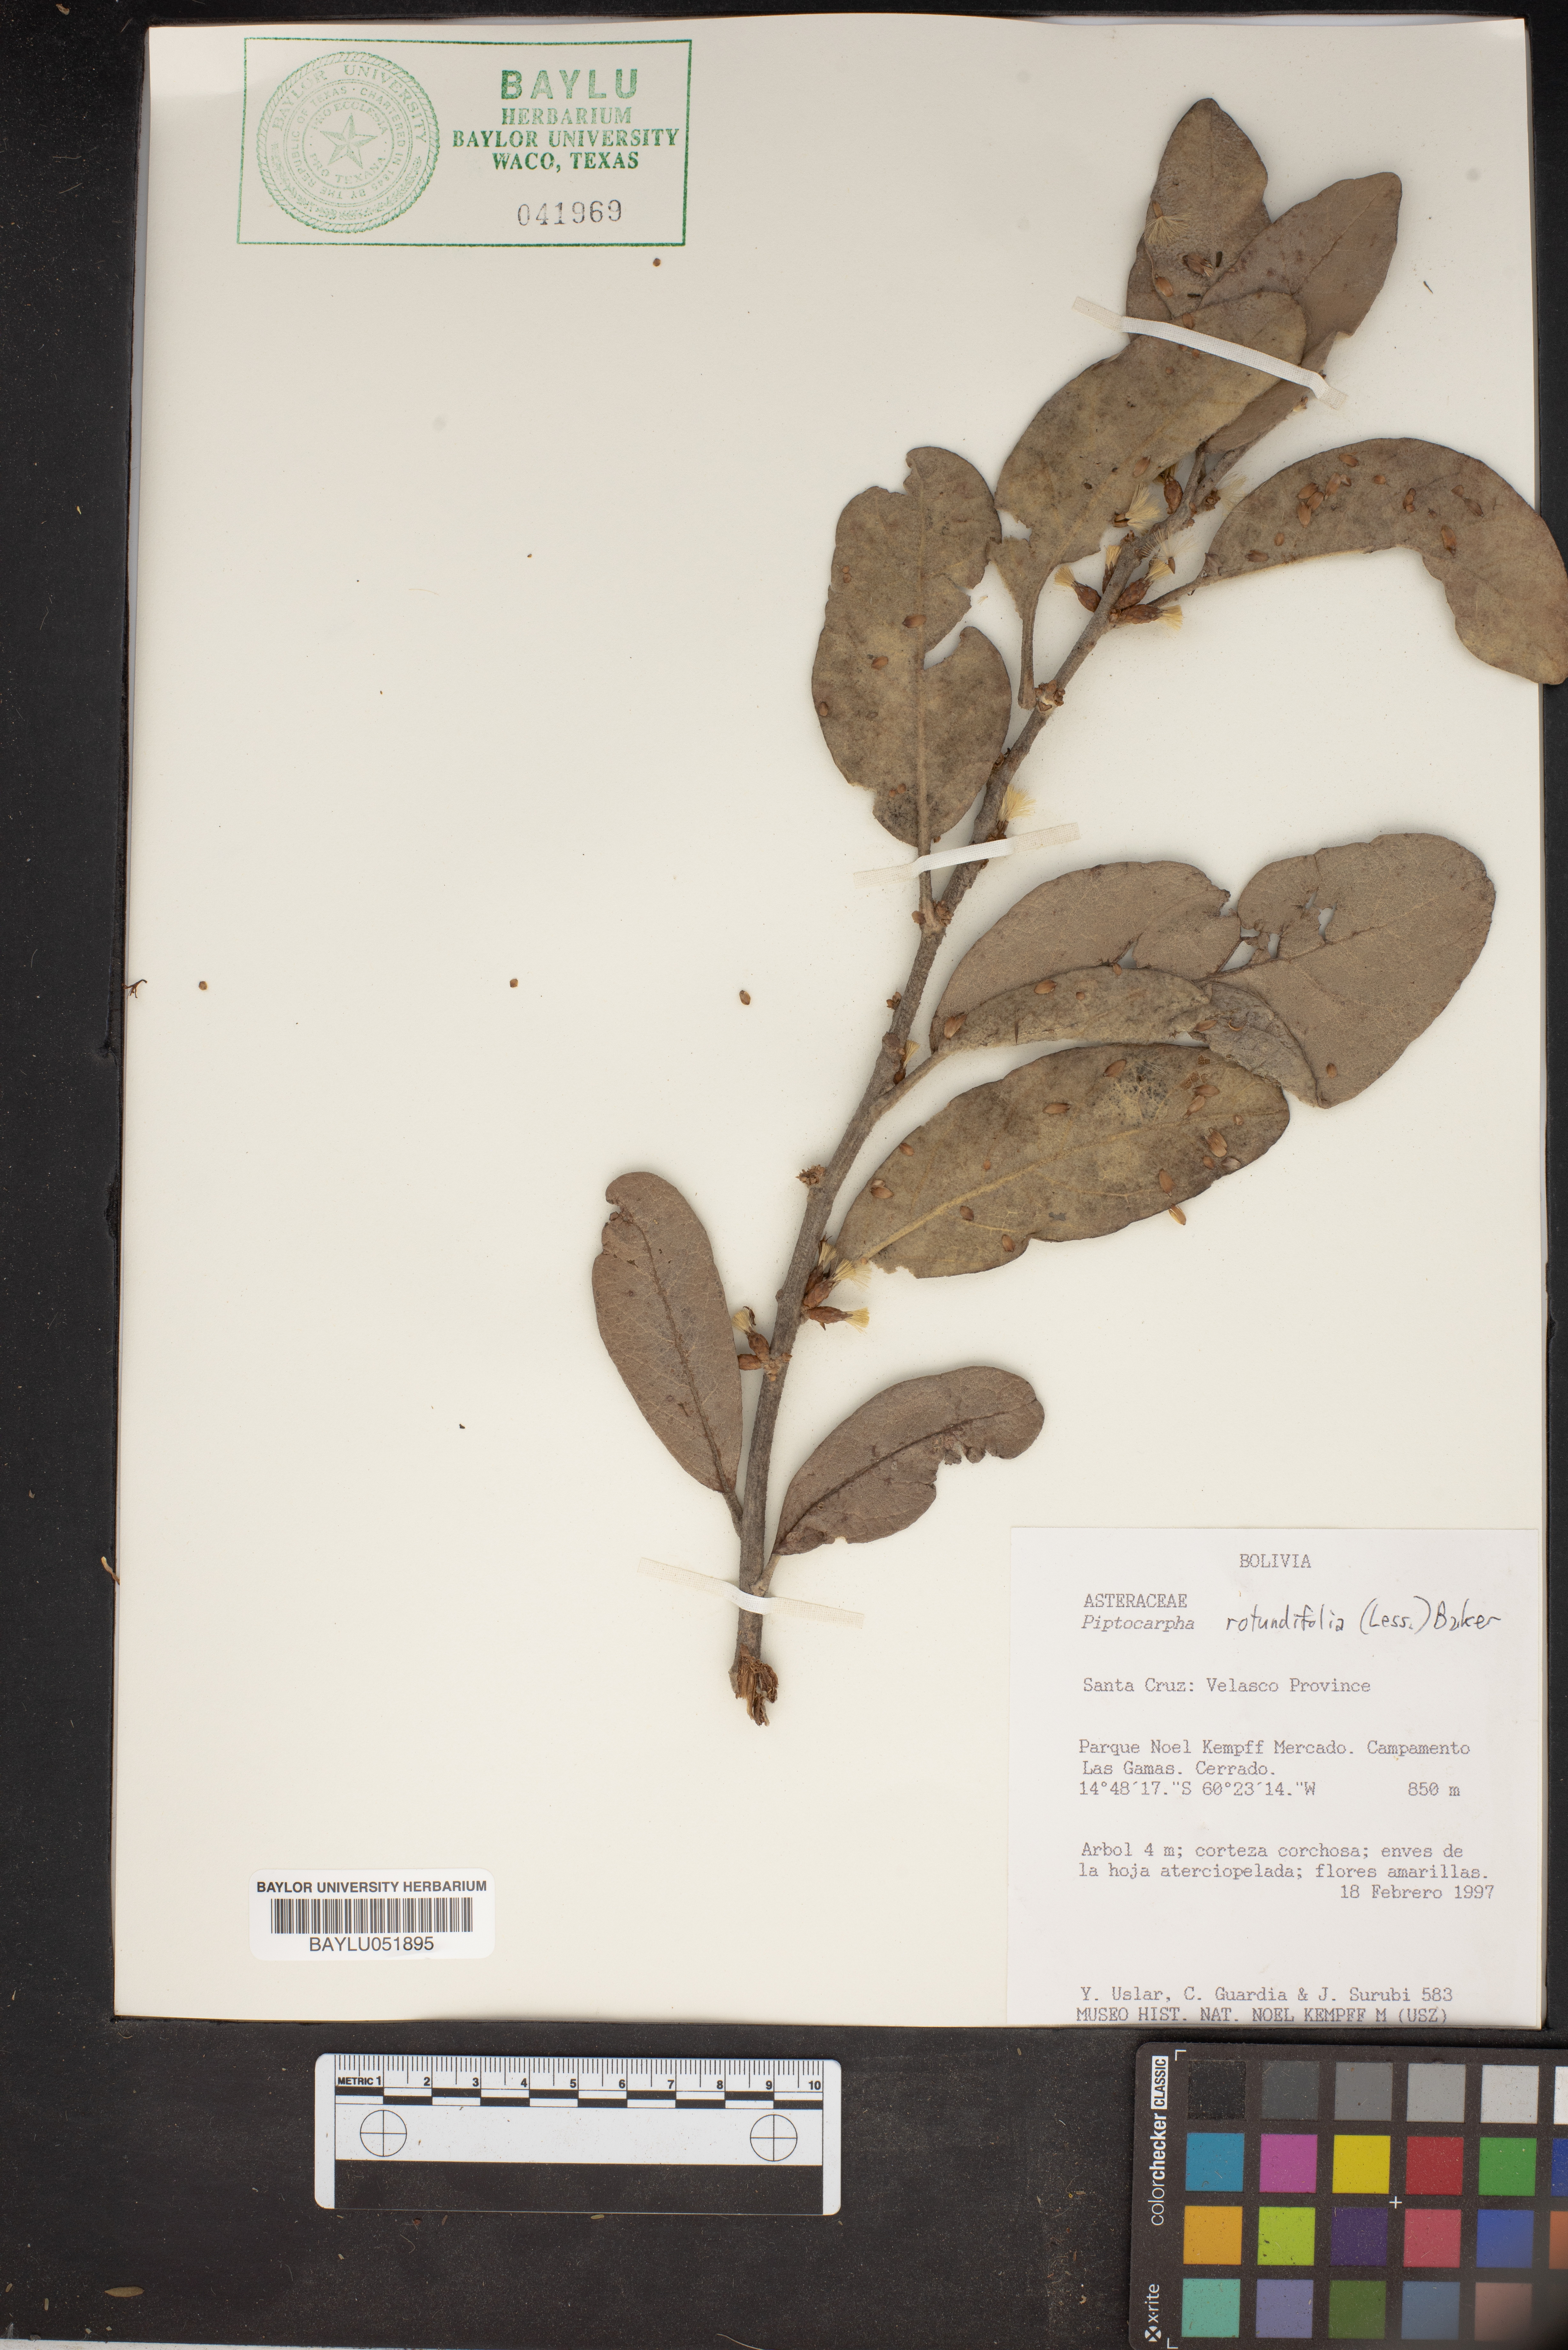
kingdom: Plantae
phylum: Tracheophyta
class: Magnoliopsida
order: Asterales
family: Asteraceae
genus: Piptocarpha
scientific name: Piptocarpha rotundifolia
